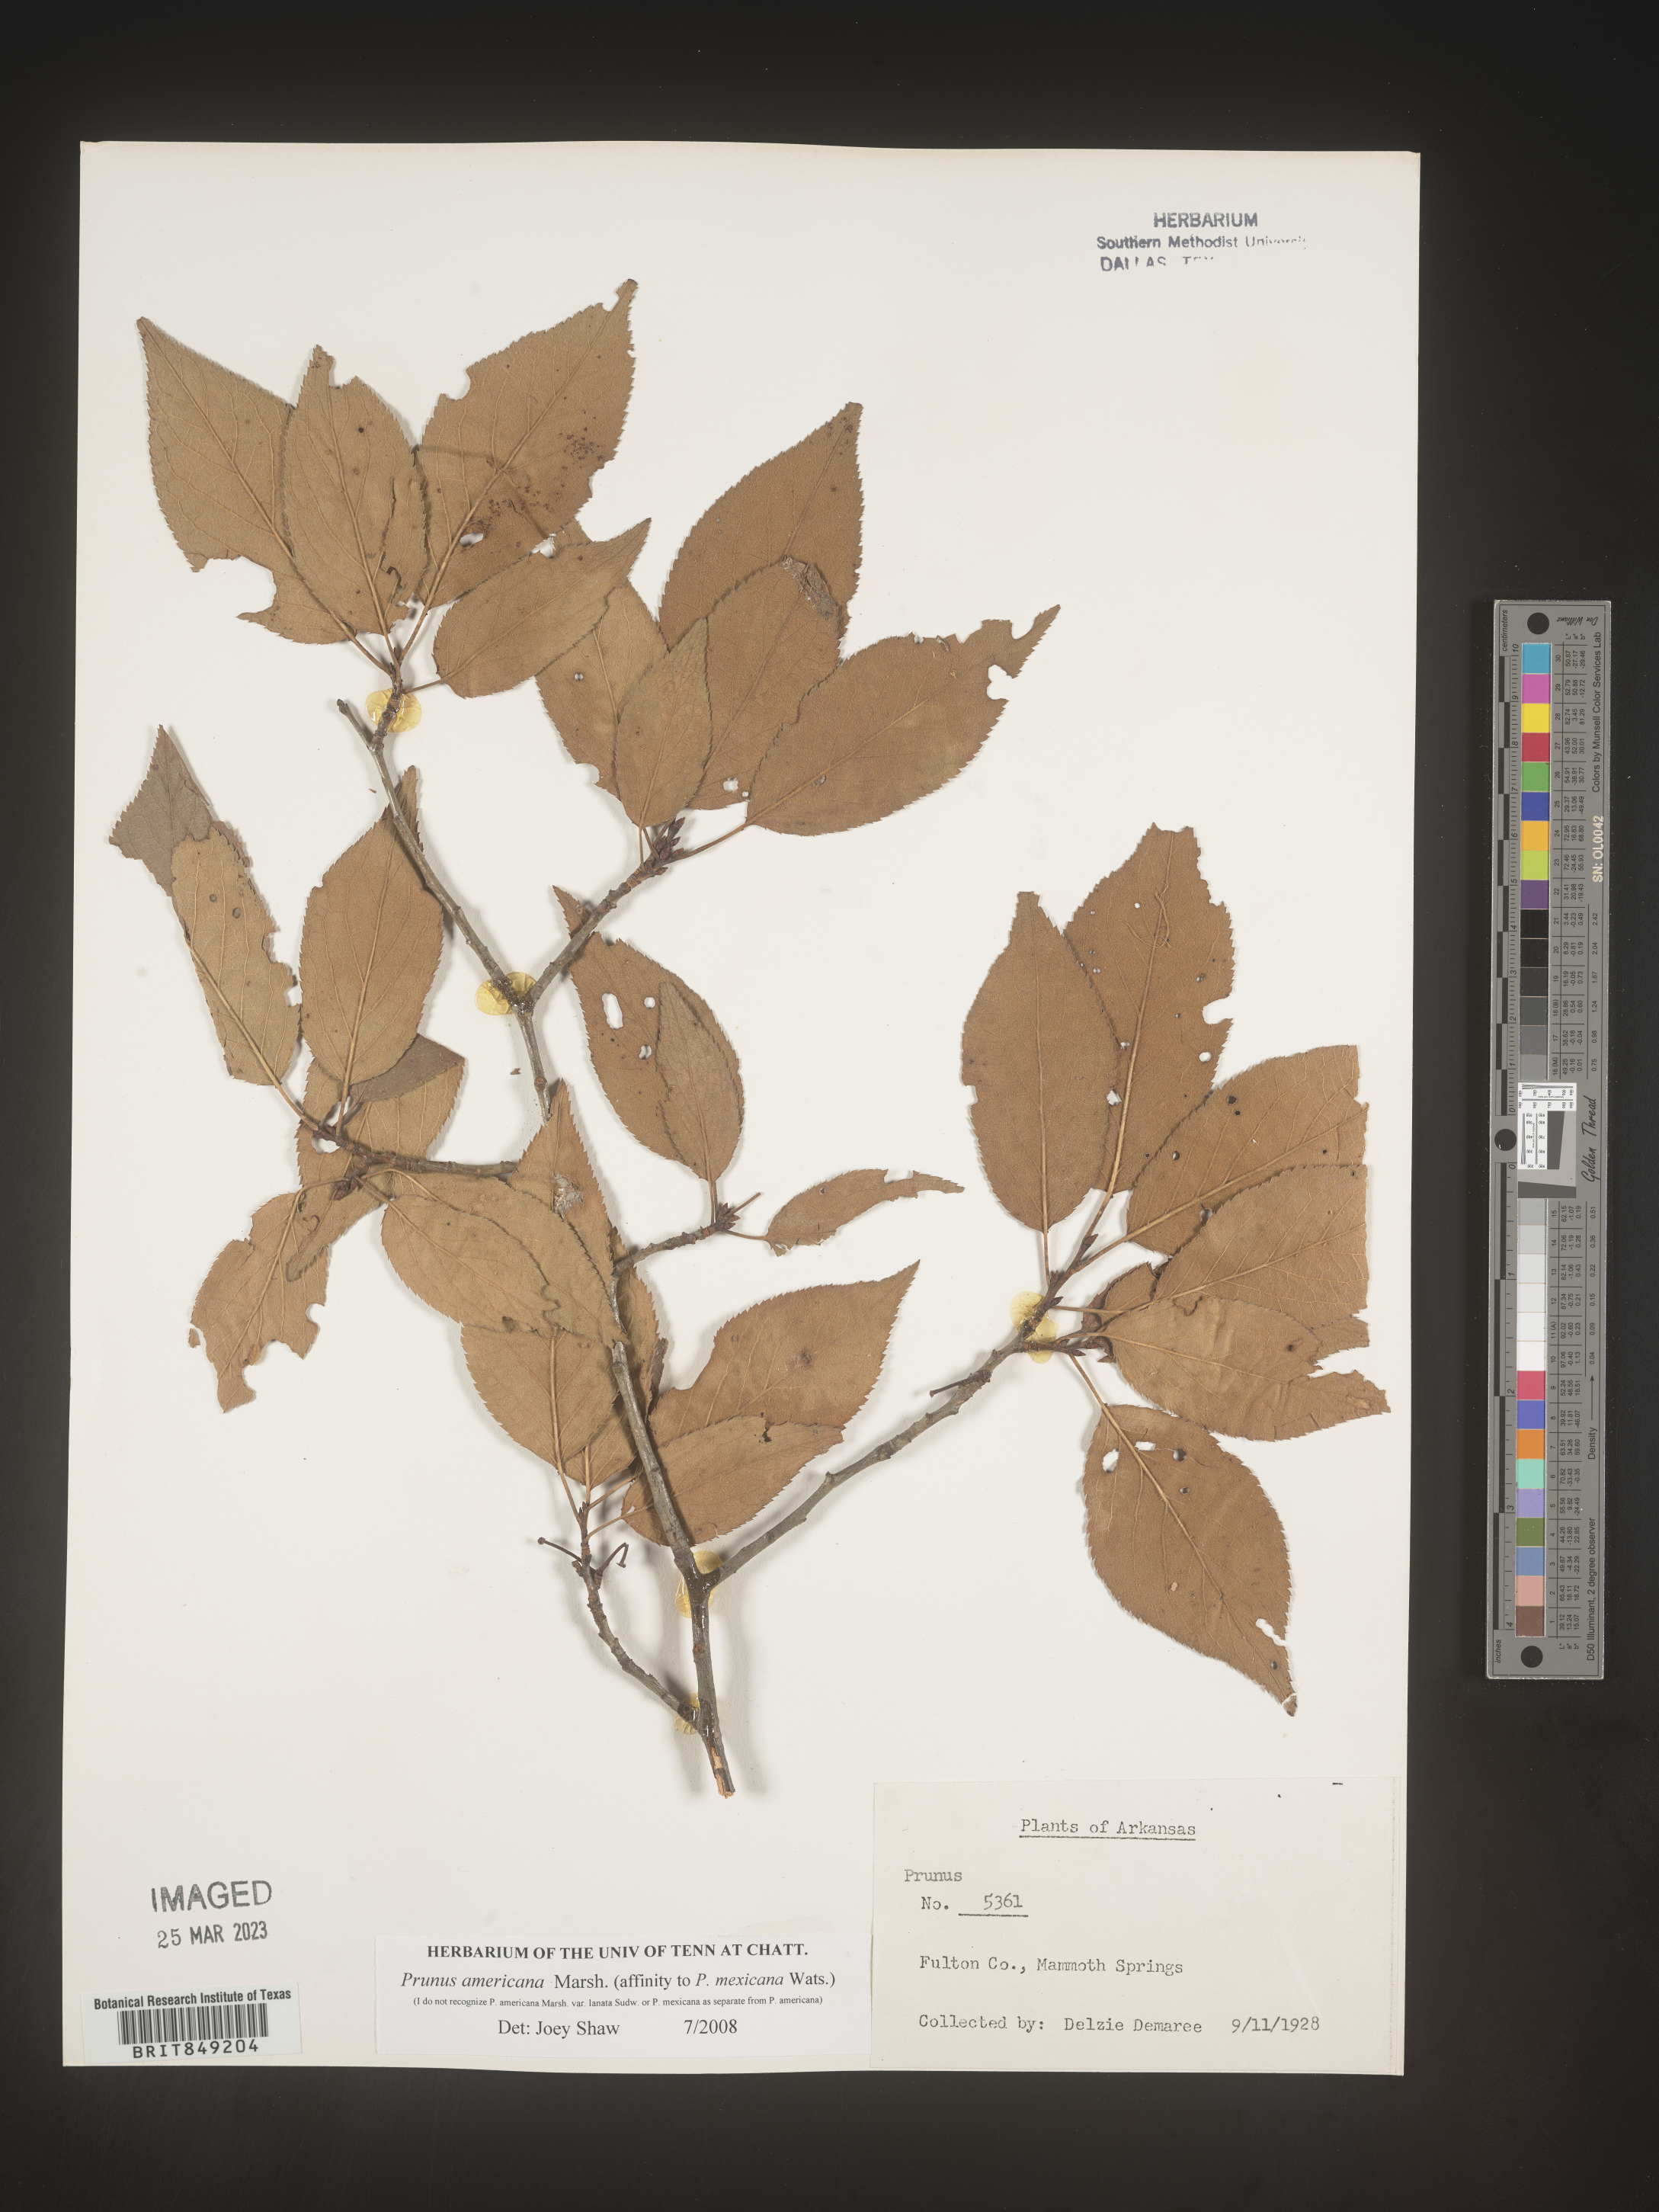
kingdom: Plantae
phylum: Tracheophyta
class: Magnoliopsida
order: Rosales
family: Rosaceae
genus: Prunus
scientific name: Prunus americana
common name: American plum
